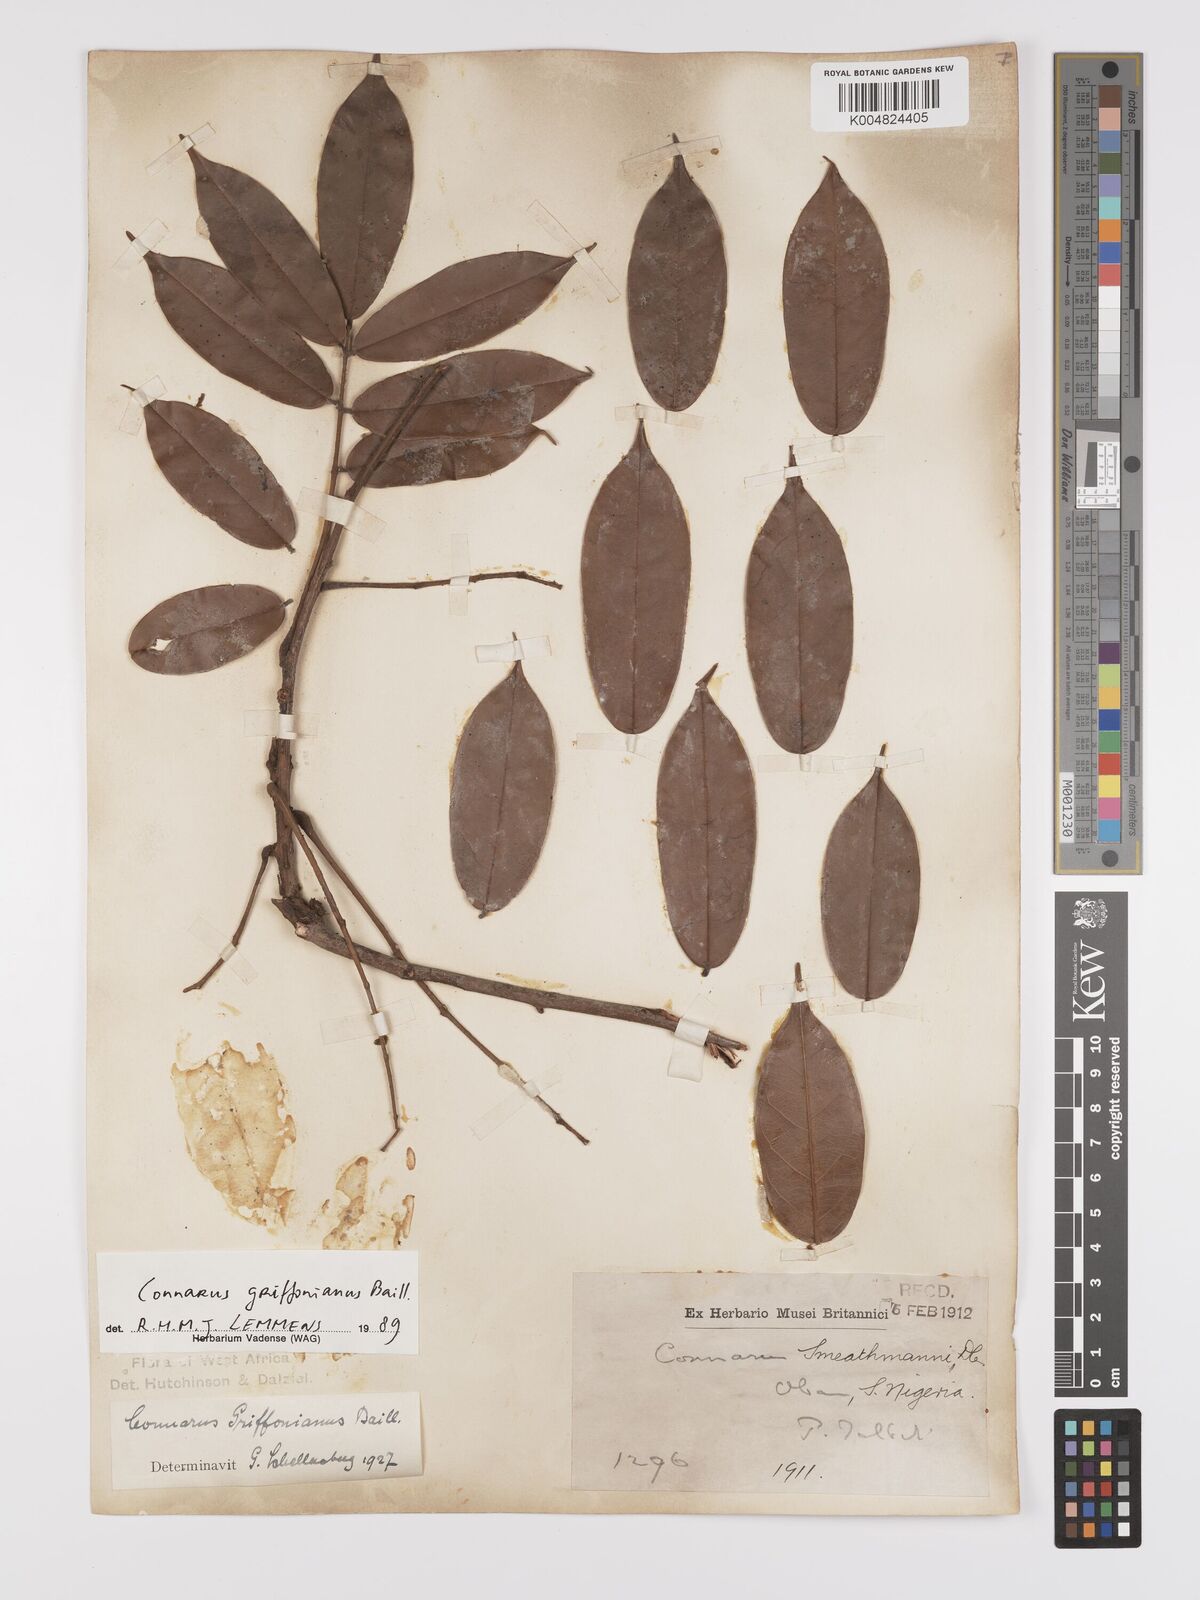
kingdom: Plantae
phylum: Tracheophyta
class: Magnoliopsida
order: Oxalidales
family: Connaraceae
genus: Connarus
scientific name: Connarus griffonianus
